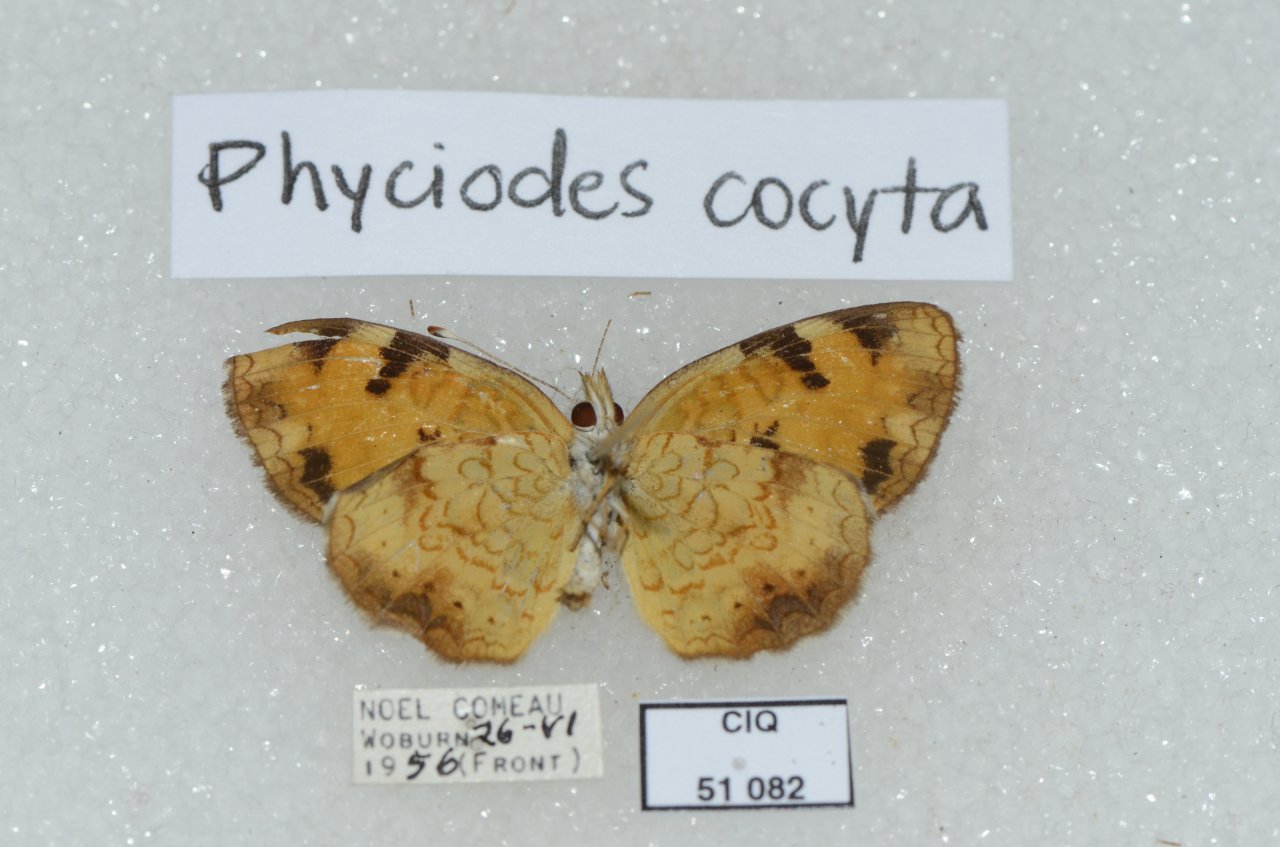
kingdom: Animalia
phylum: Arthropoda
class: Insecta
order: Lepidoptera
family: Nymphalidae
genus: Phyciodes
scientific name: Phyciodes tharos
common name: Northern Crescent
